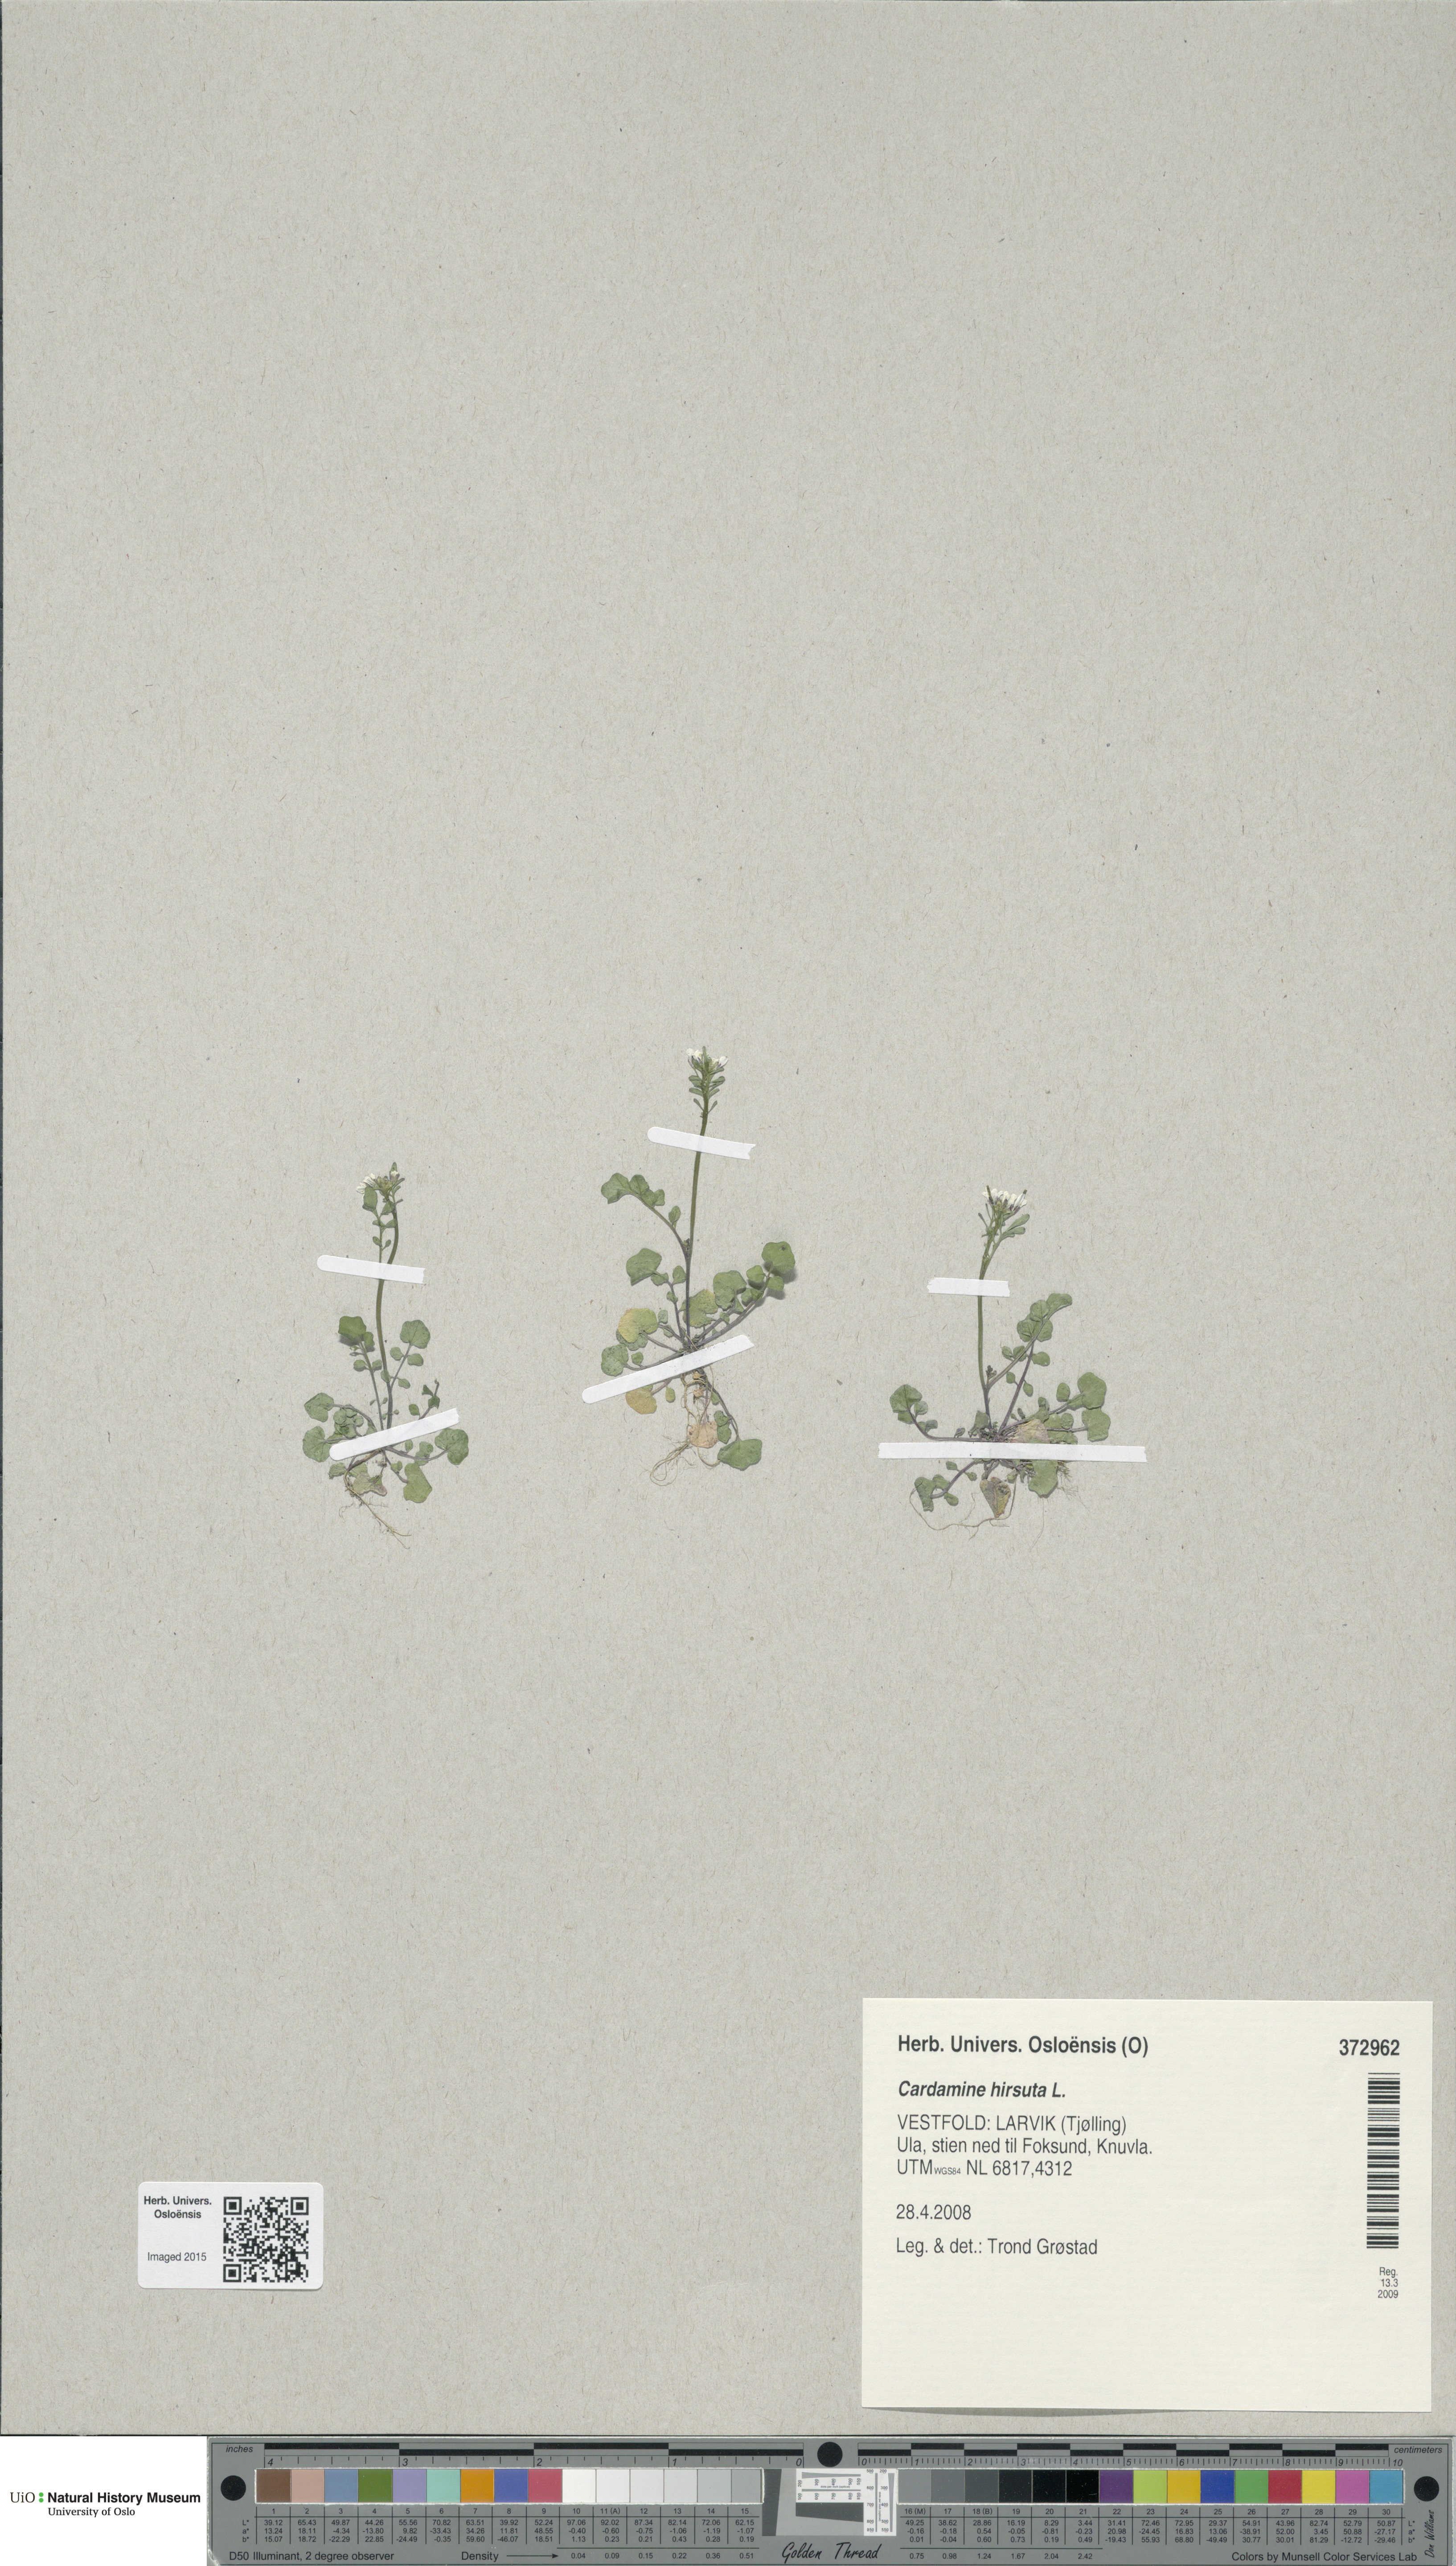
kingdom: Plantae
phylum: Tracheophyta
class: Magnoliopsida
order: Brassicales
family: Brassicaceae
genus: Cardamine
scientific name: Cardamine hirsuta
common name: Hairy bittercress
